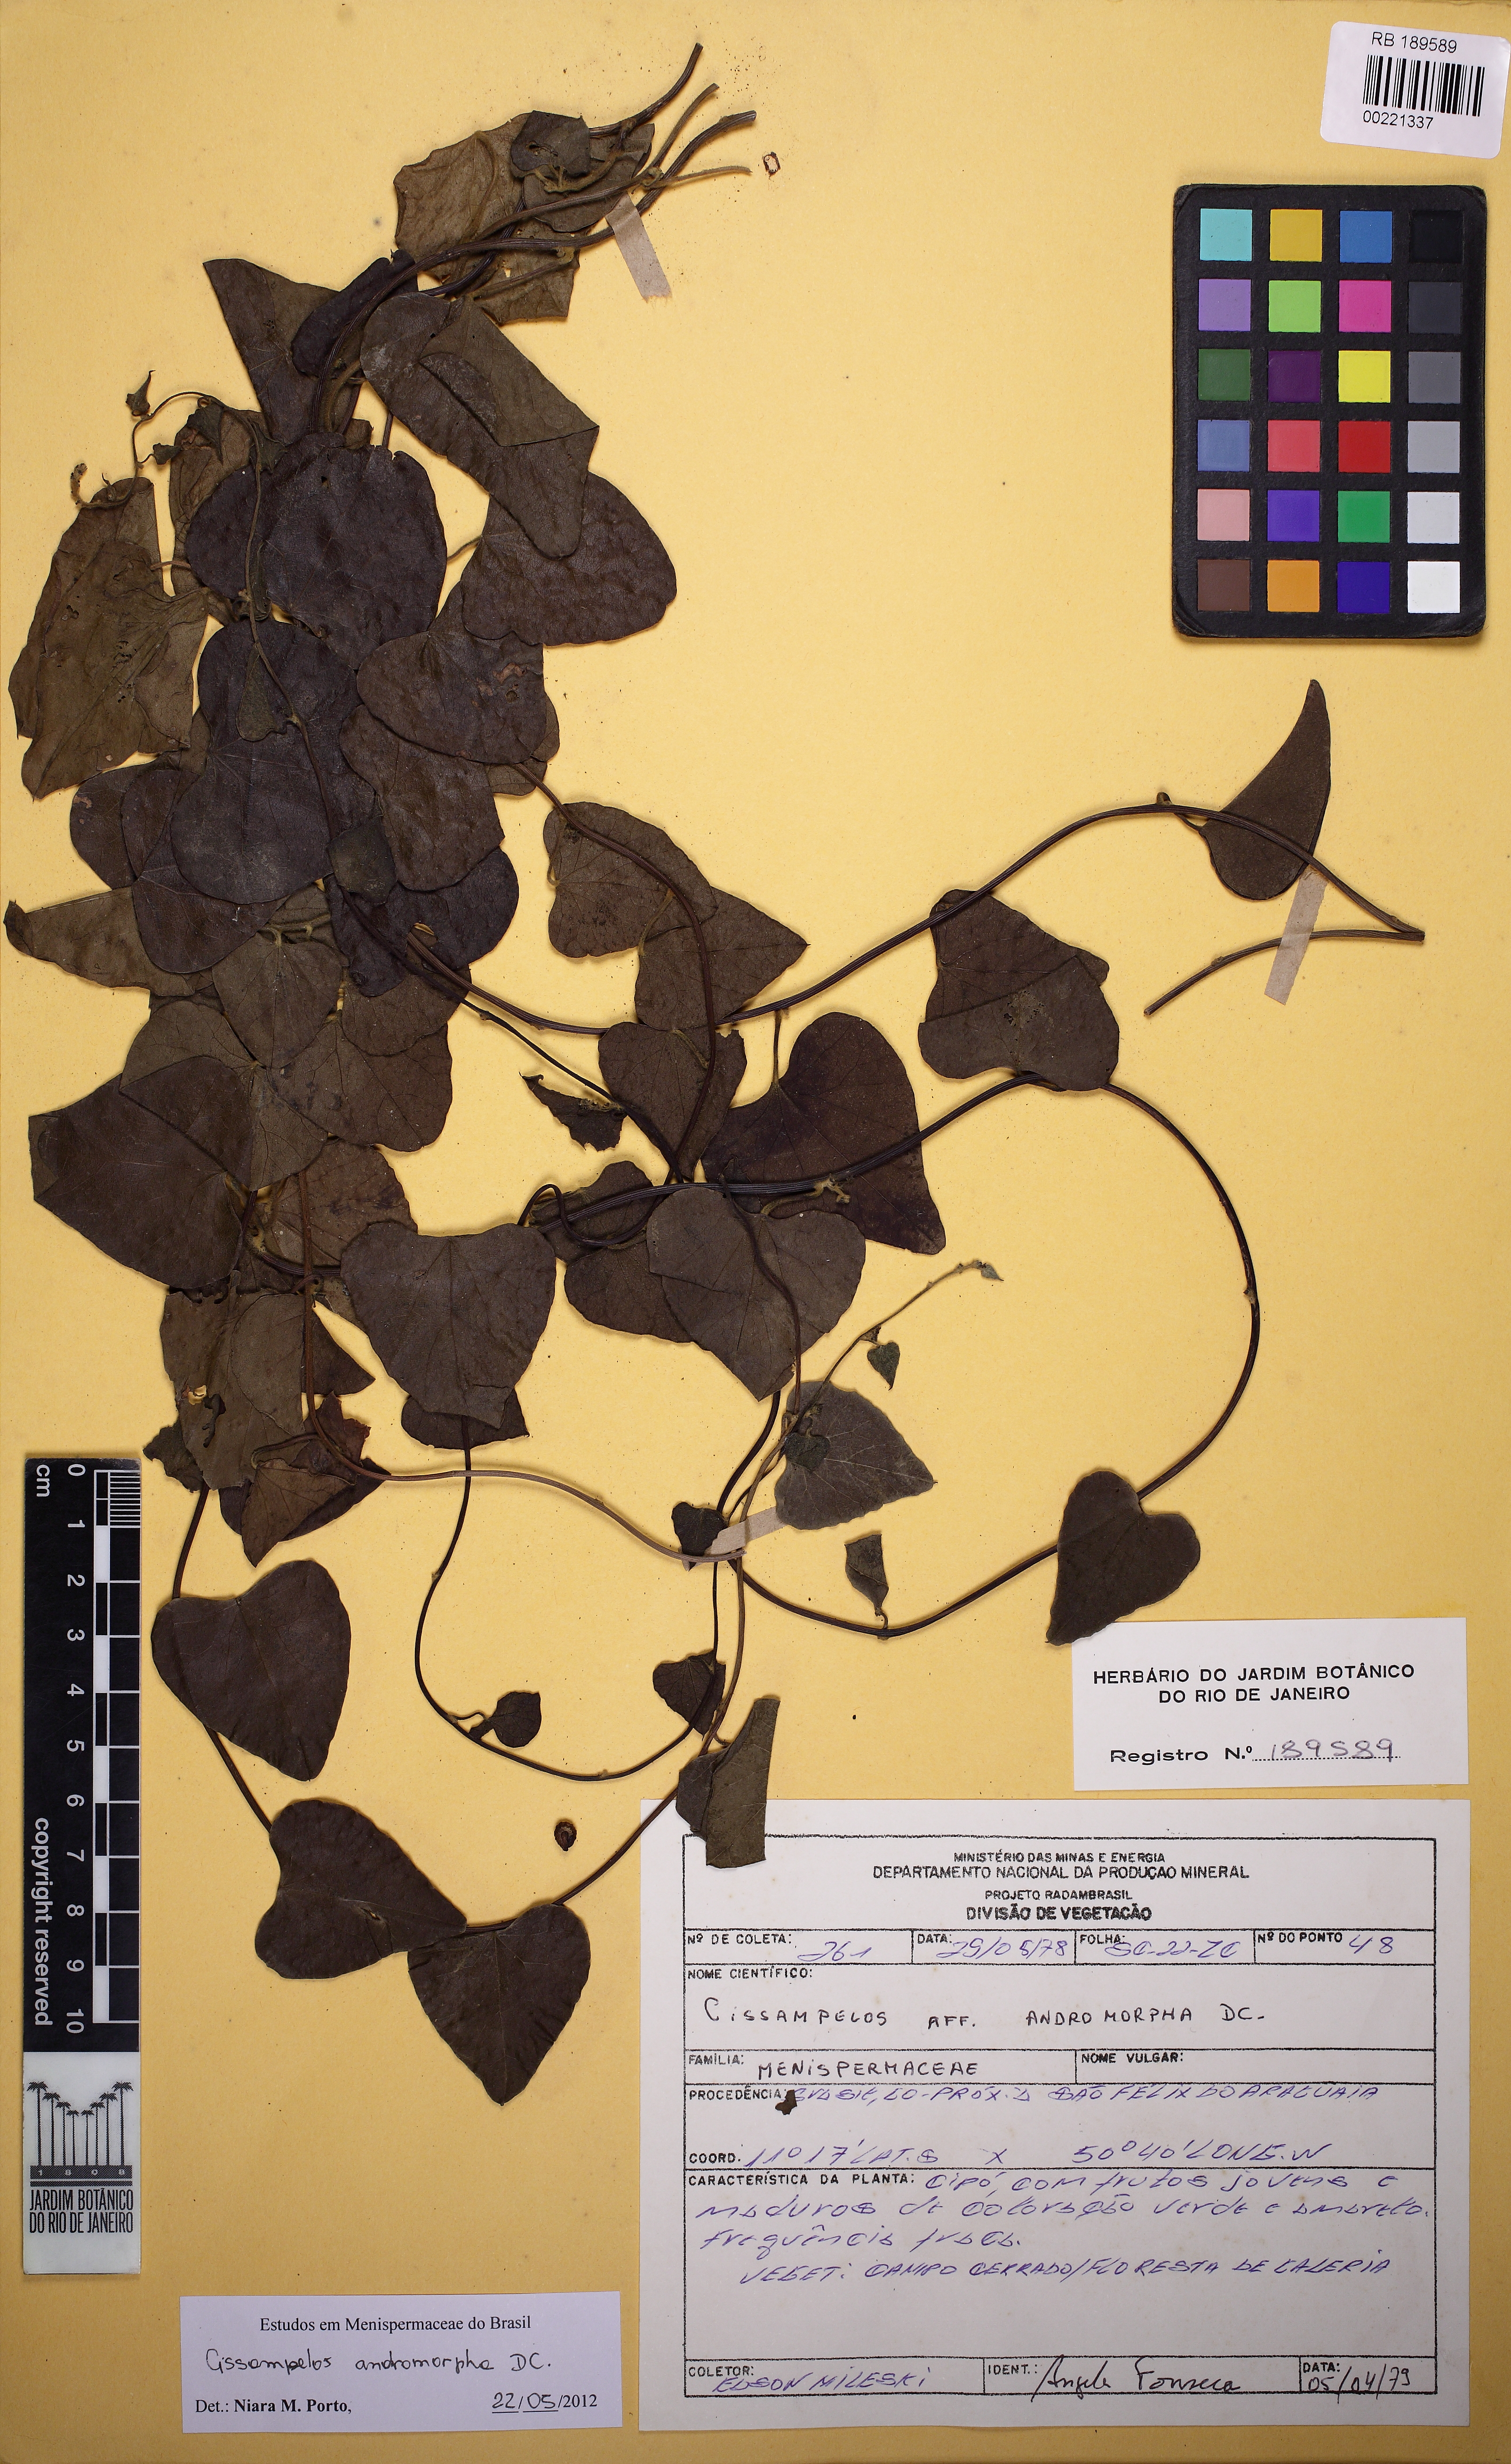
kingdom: Plantae
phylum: Tracheophyta
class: Magnoliopsida
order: Ranunculales
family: Menispermaceae
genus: Cissampelos
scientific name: Cissampelos andromorpha
